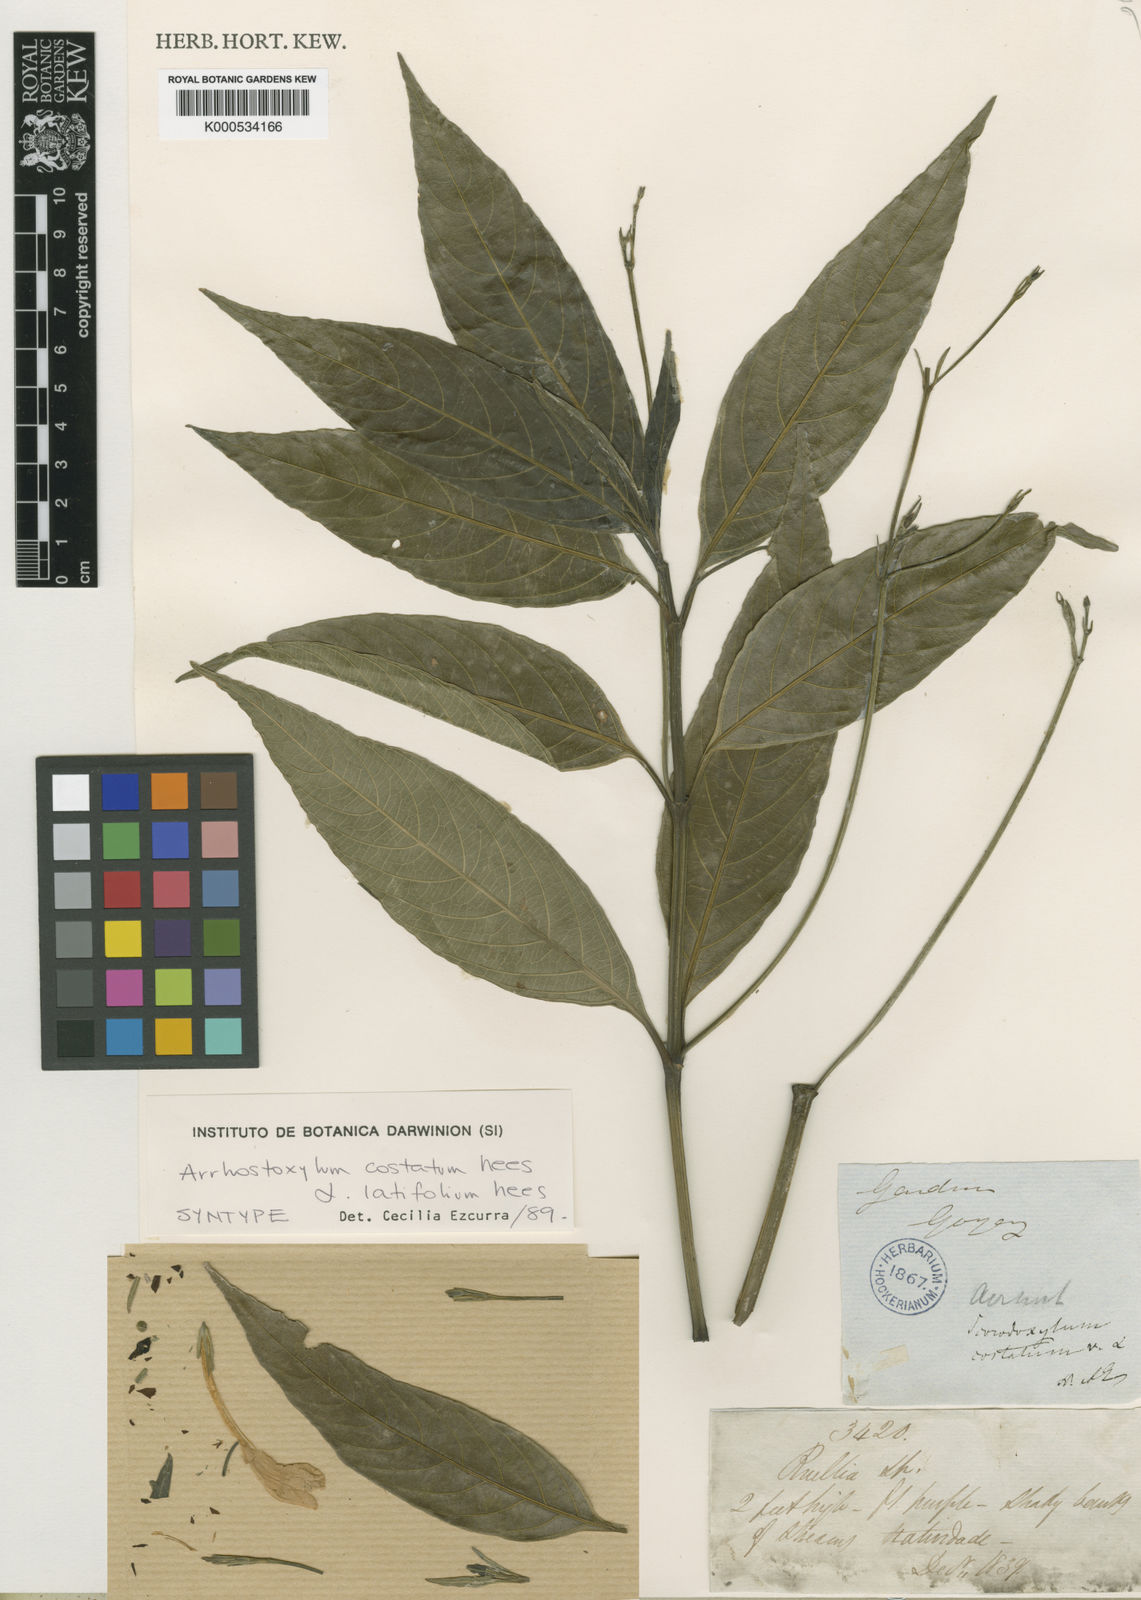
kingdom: Plantae
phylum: Tracheophyta
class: Magnoliopsida
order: Lamiales
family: Acanthaceae
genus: Ruellia
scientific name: Ruellia
